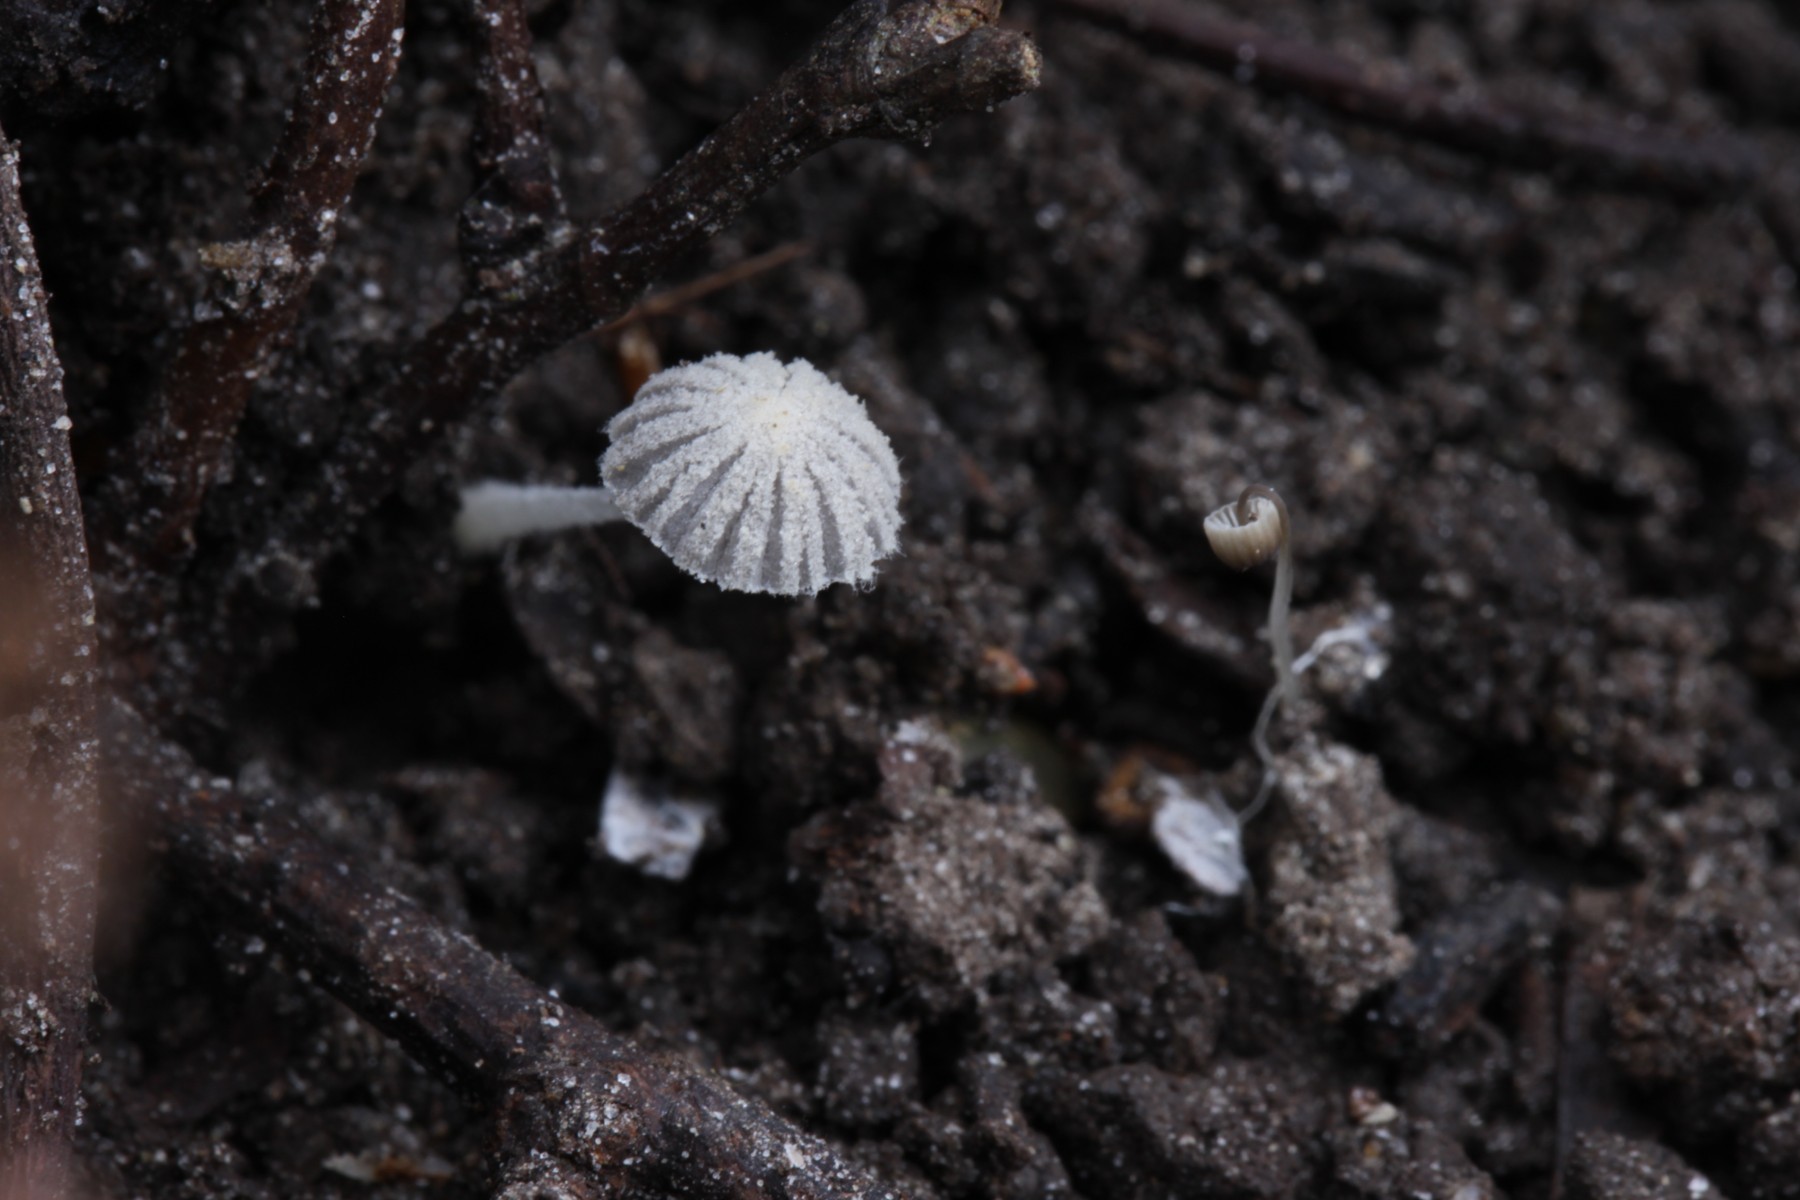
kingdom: Fungi
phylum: Basidiomycota
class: Agaricomycetes
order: Agaricales
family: Psathyrellaceae
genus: Coprinopsis
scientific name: Coprinopsis candidata
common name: hvidklædt blækhat
